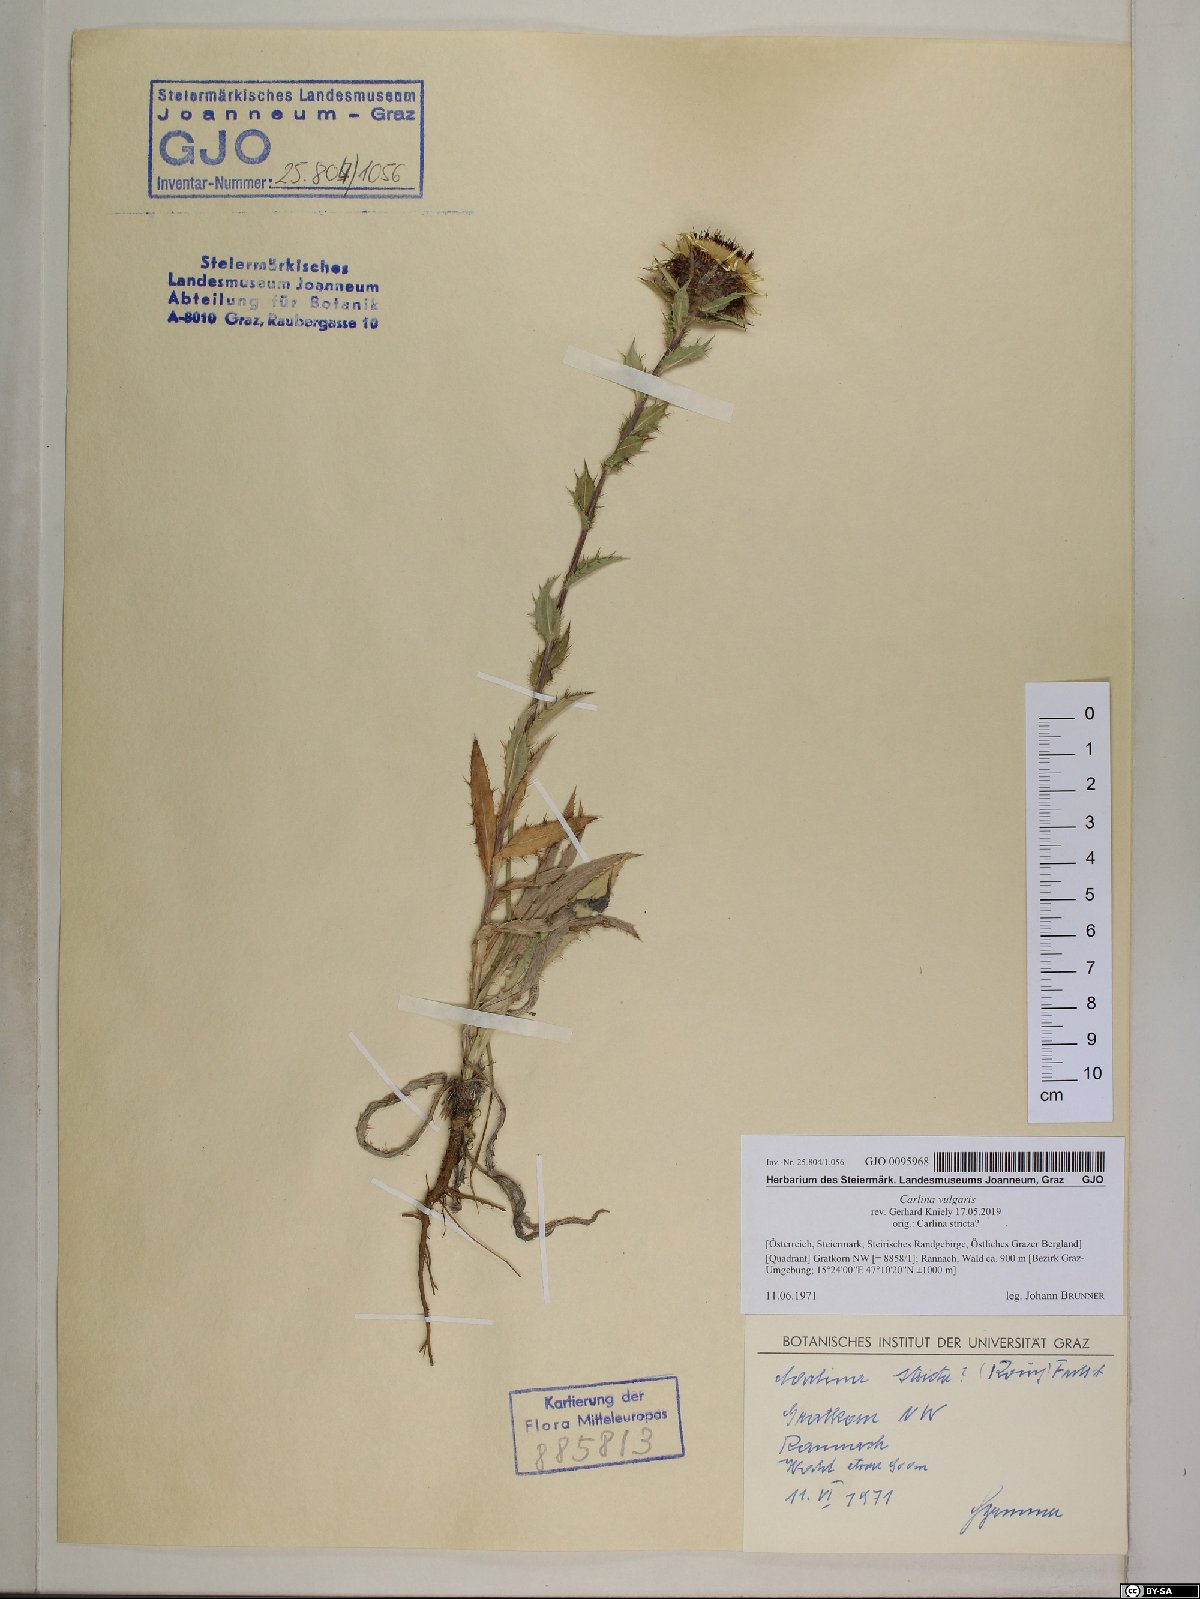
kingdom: Plantae
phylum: Tracheophyta
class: Magnoliopsida
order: Asterales
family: Asteraceae
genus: Carlina
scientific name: Carlina vulgaris
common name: Carline thistle
